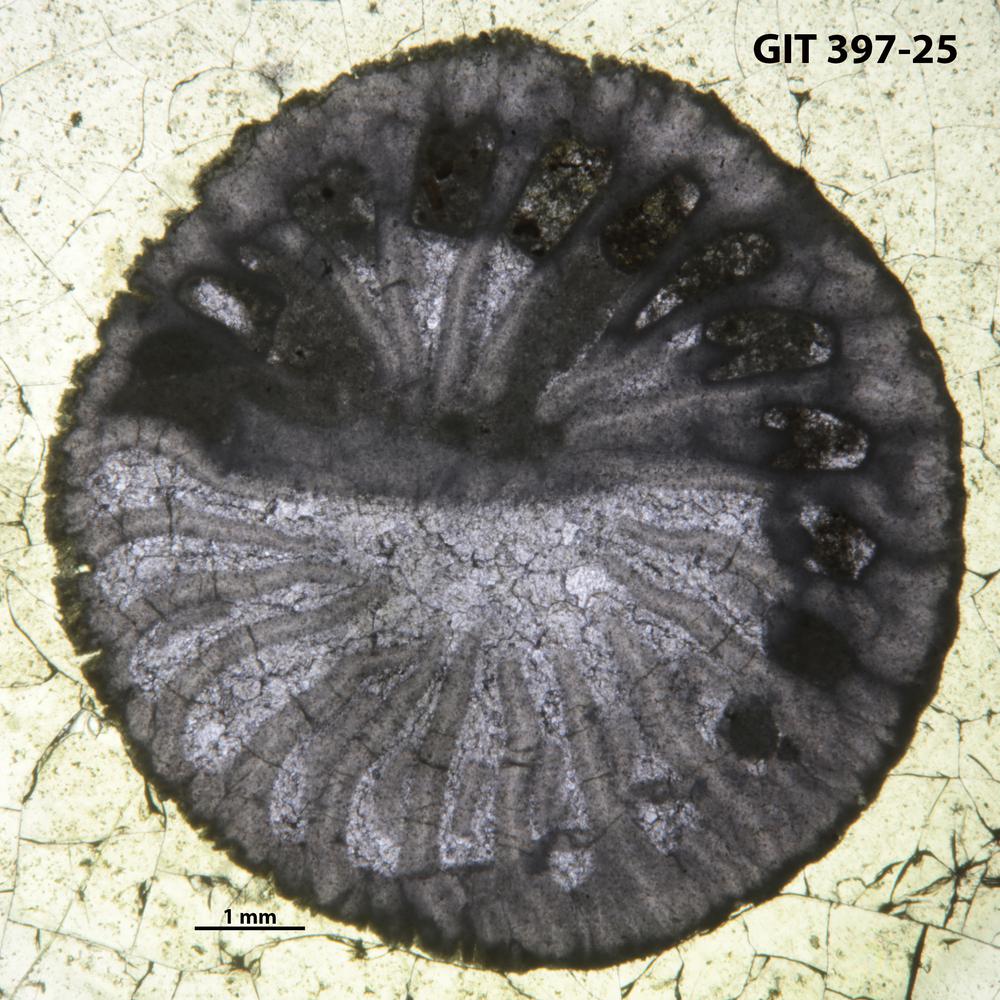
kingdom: Animalia
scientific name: Animalia
